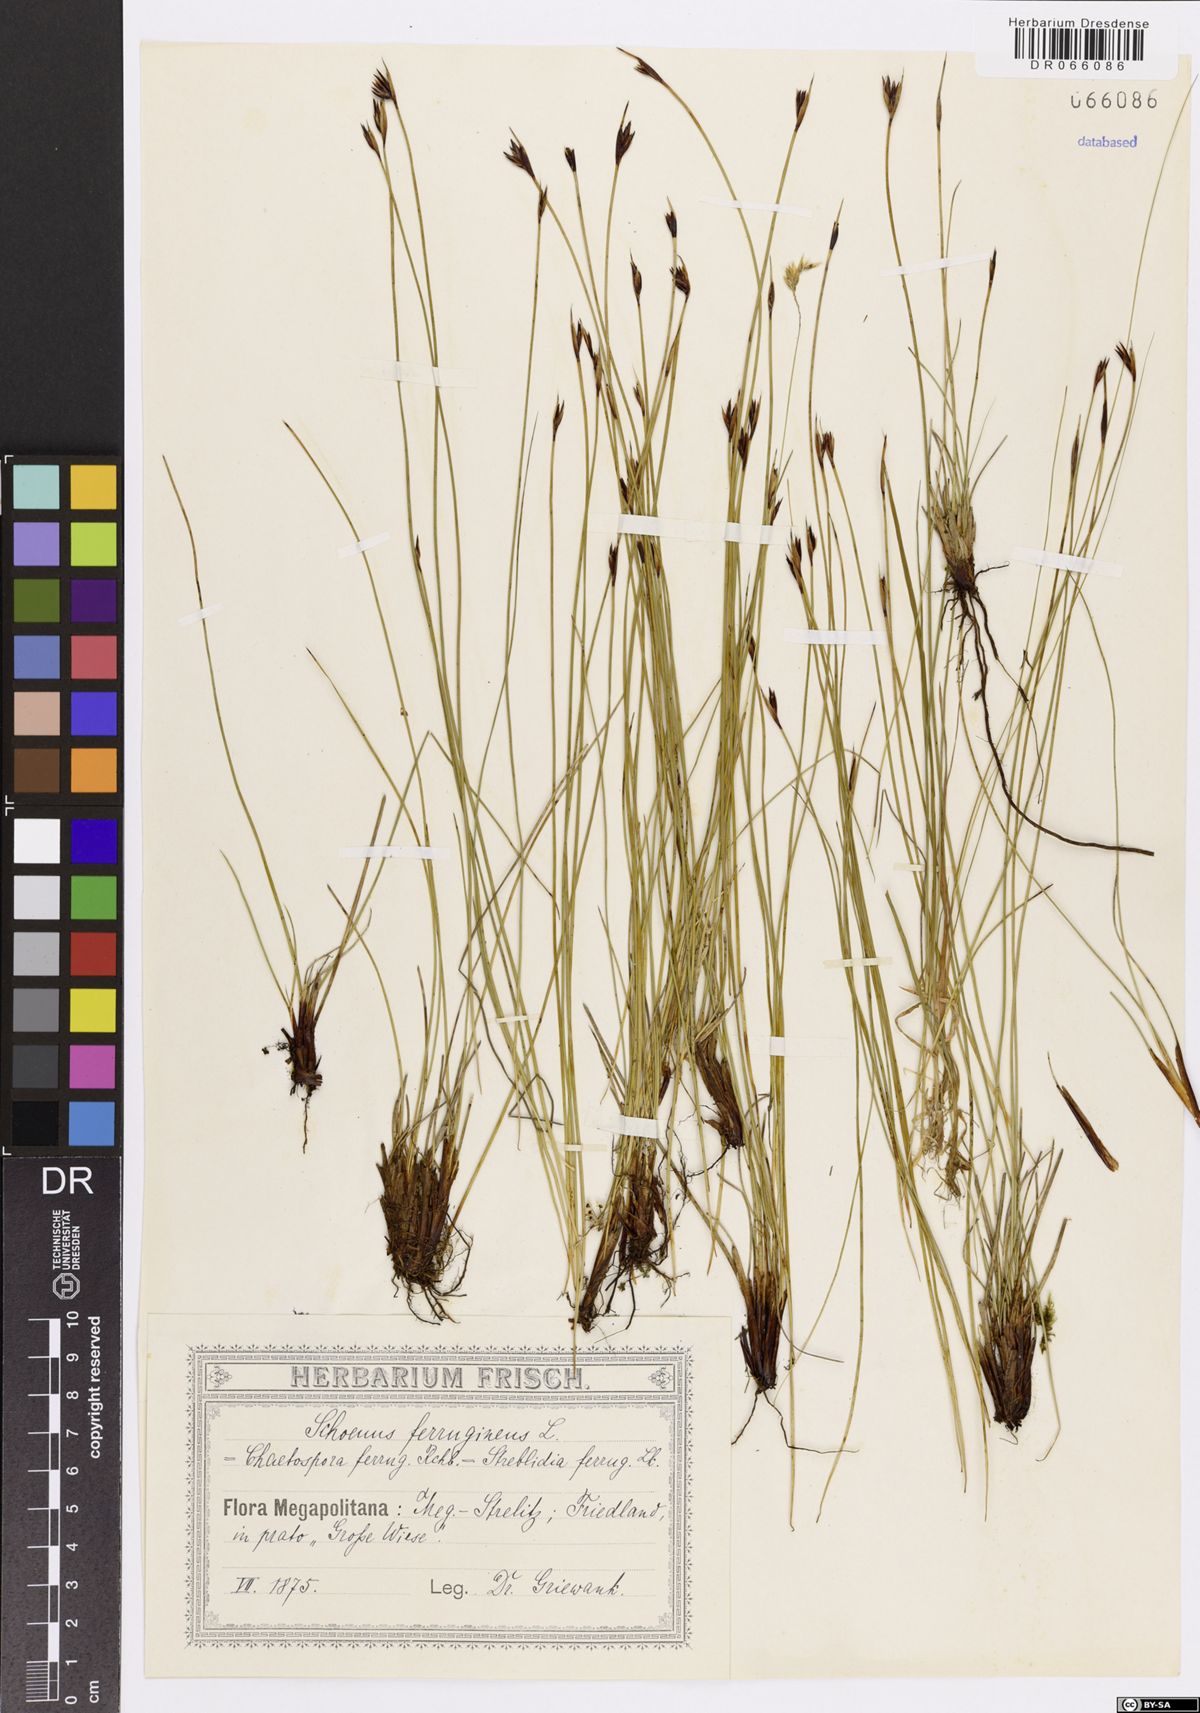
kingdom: Plantae
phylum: Tracheophyta
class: Liliopsida
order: Poales
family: Cyperaceae
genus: Schoenus
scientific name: Schoenus ferrugineus
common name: Brown bog-rush
